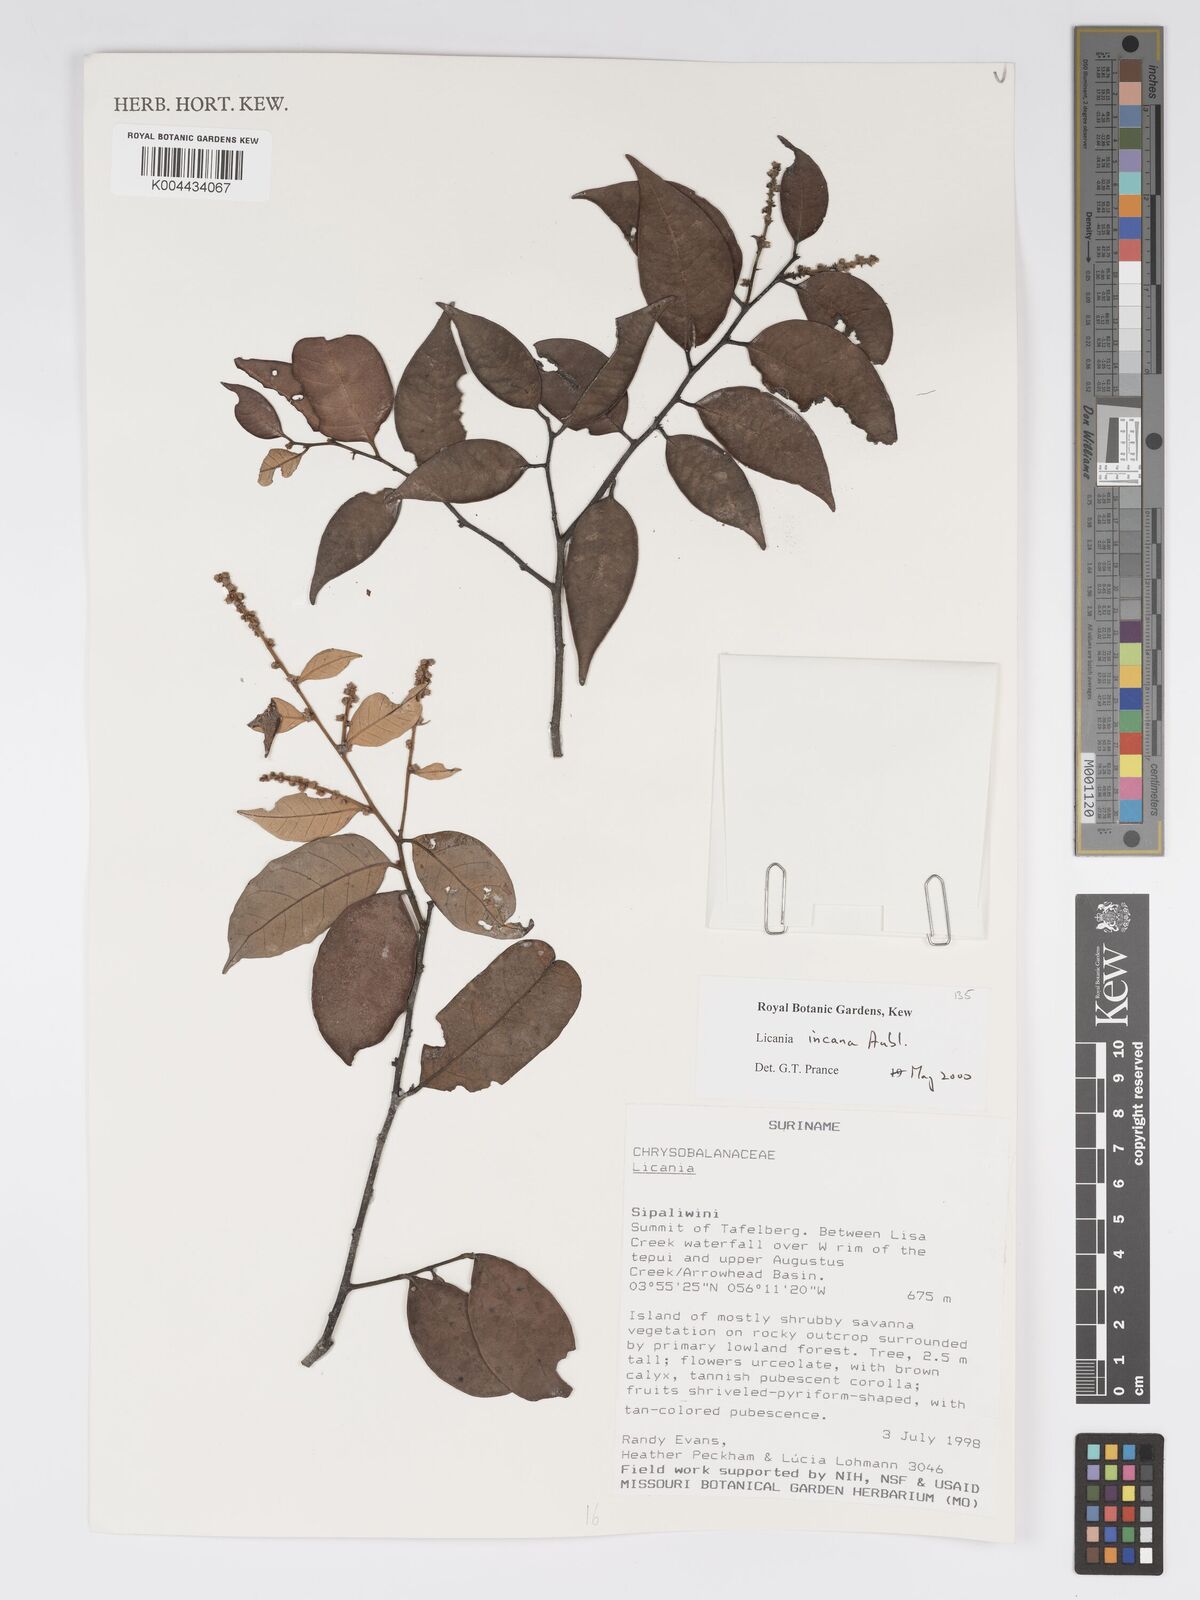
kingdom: Plantae
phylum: Tracheophyta
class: Magnoliopsida
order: Malpighiales
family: Chrysobalanaceae
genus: Licania
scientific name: Licania incana
